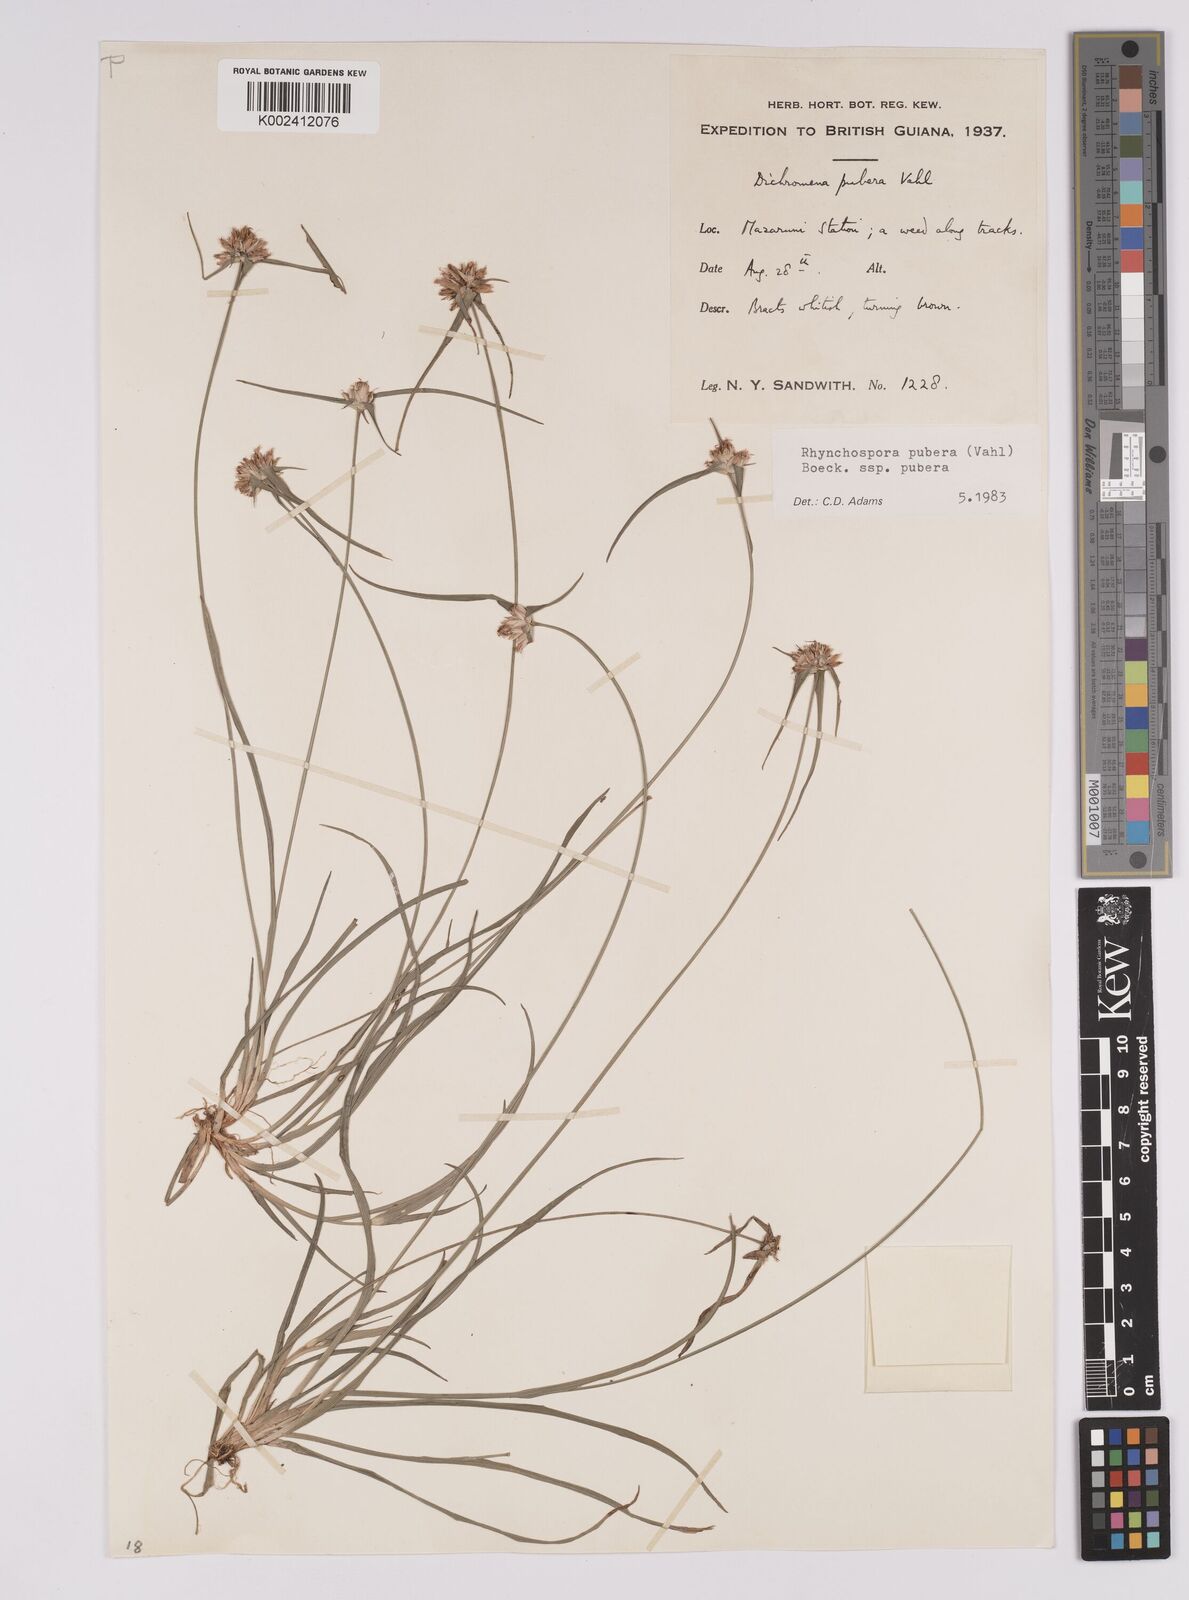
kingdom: Plantae
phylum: Tracheophyta
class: Liliopsida
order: Poales
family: Cyperaceae
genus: Rhynchospora
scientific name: Rhynchospora pubera
